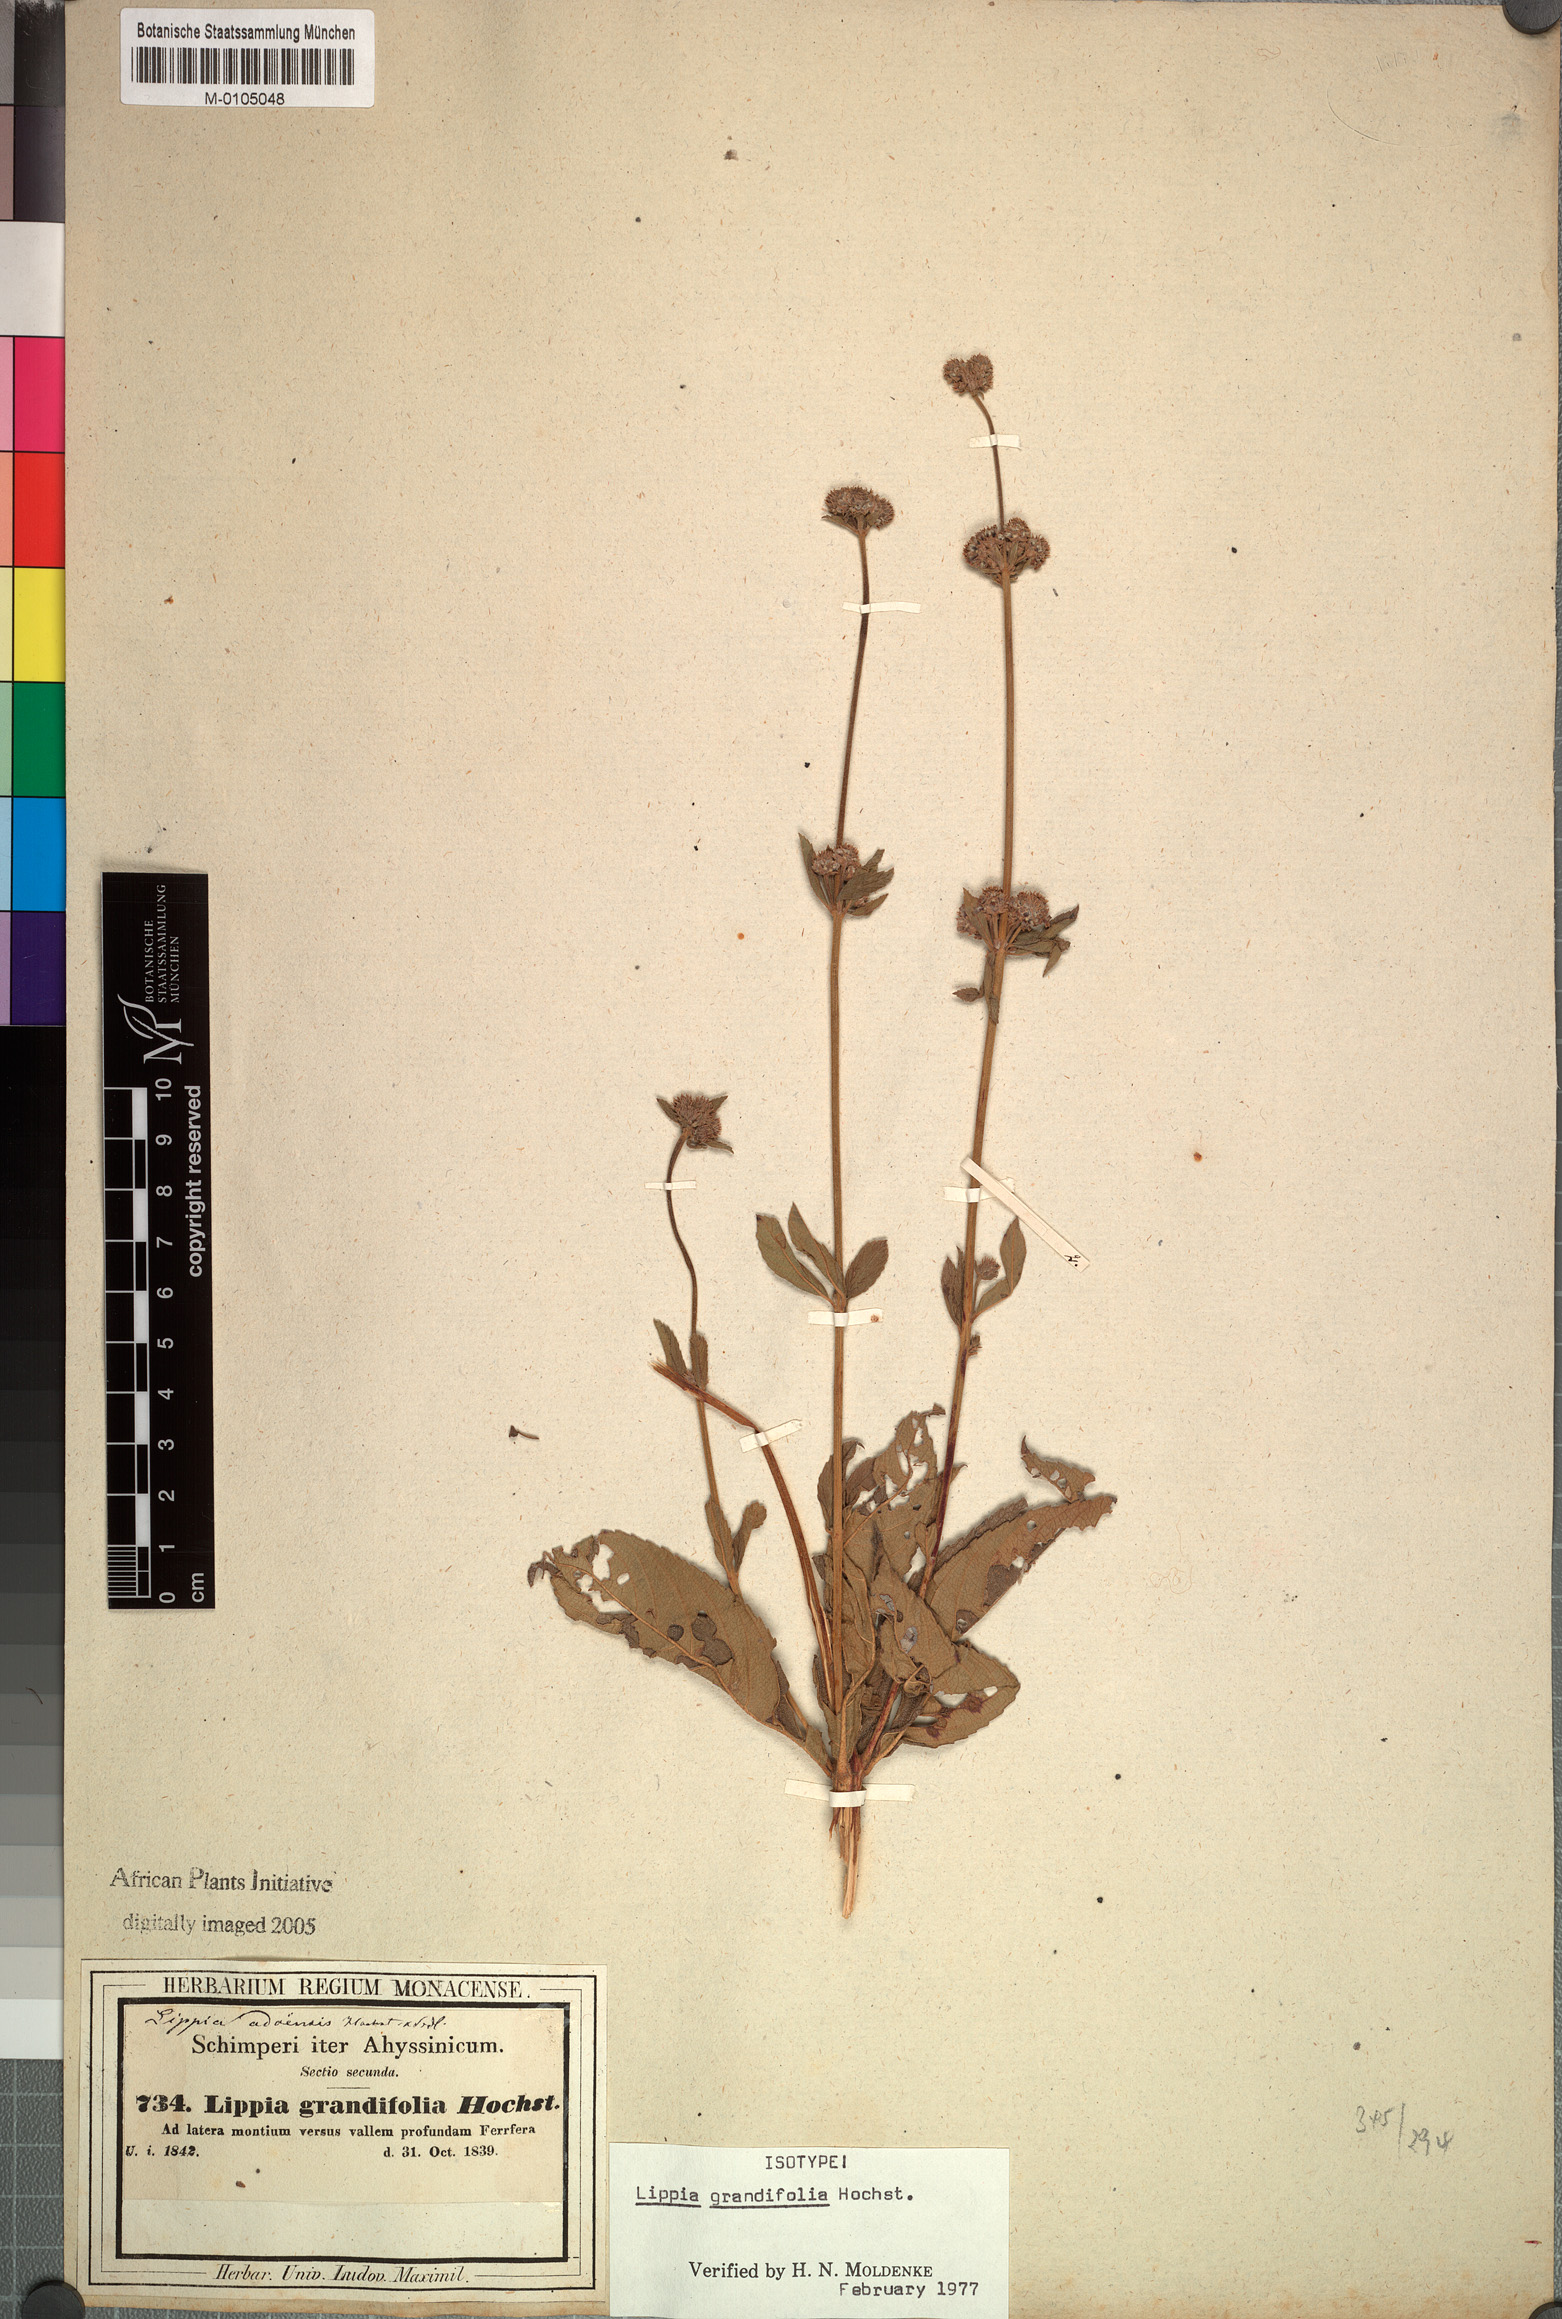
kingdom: Plantae
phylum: Tracheophyta
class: Magnoliopsida
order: Lamiales
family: Verbenaceae
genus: Lippia
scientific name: Lippia abyssinica
